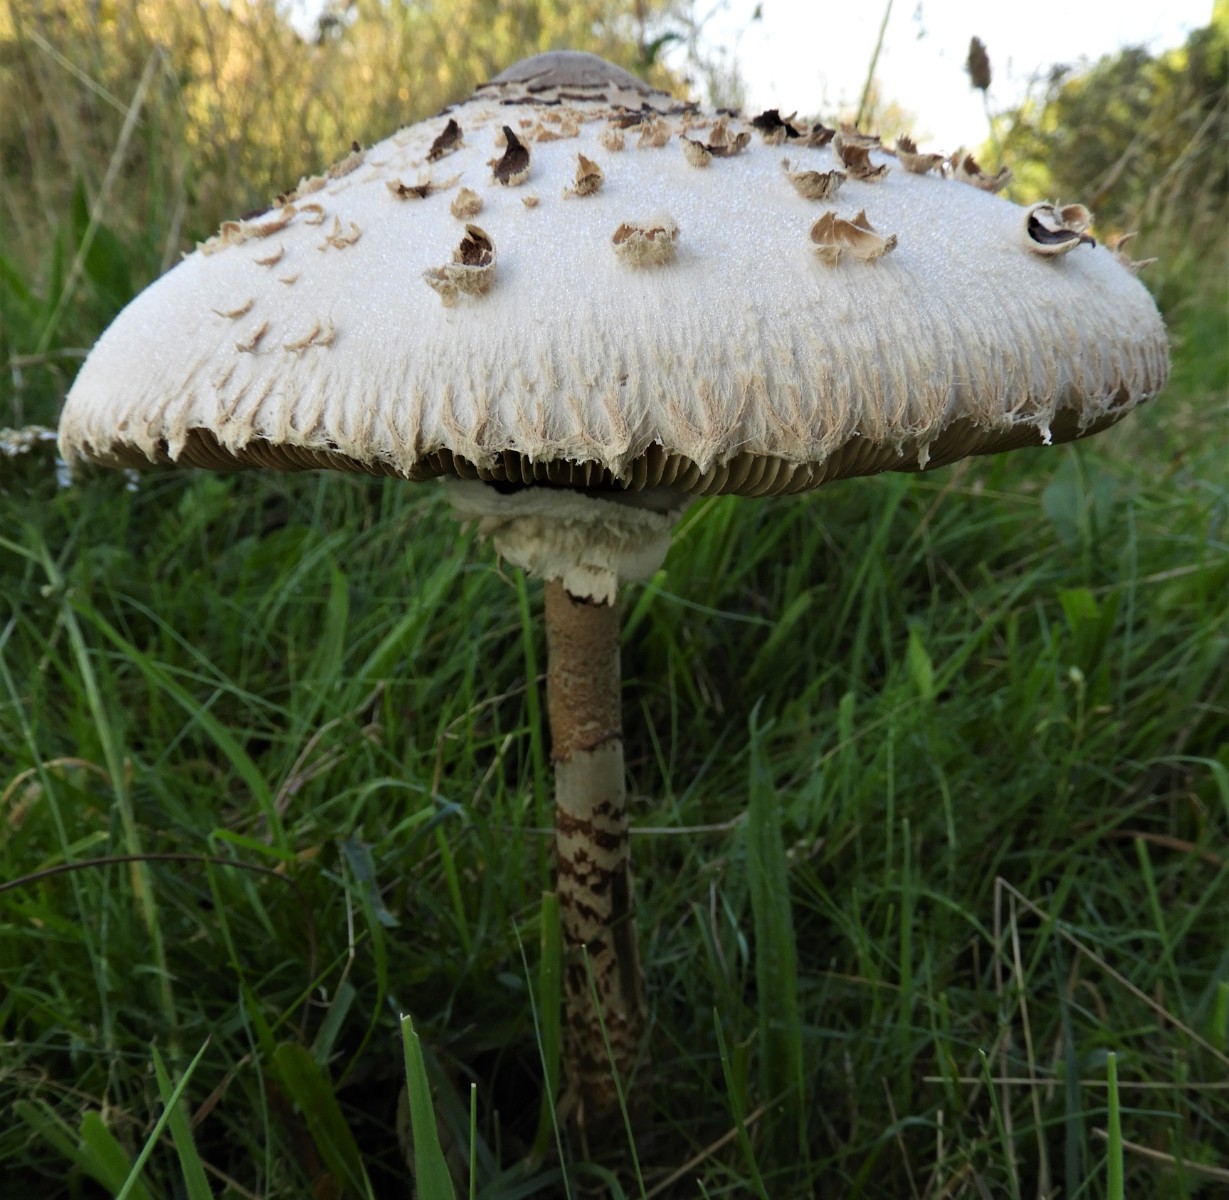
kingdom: Fungi
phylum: Basidiomycota
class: Agaricomycetes
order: Agaricales
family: Agaricaceae
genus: Macrolepiota
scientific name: Macrolepiota procera
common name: stor kæmpeparasolhat
